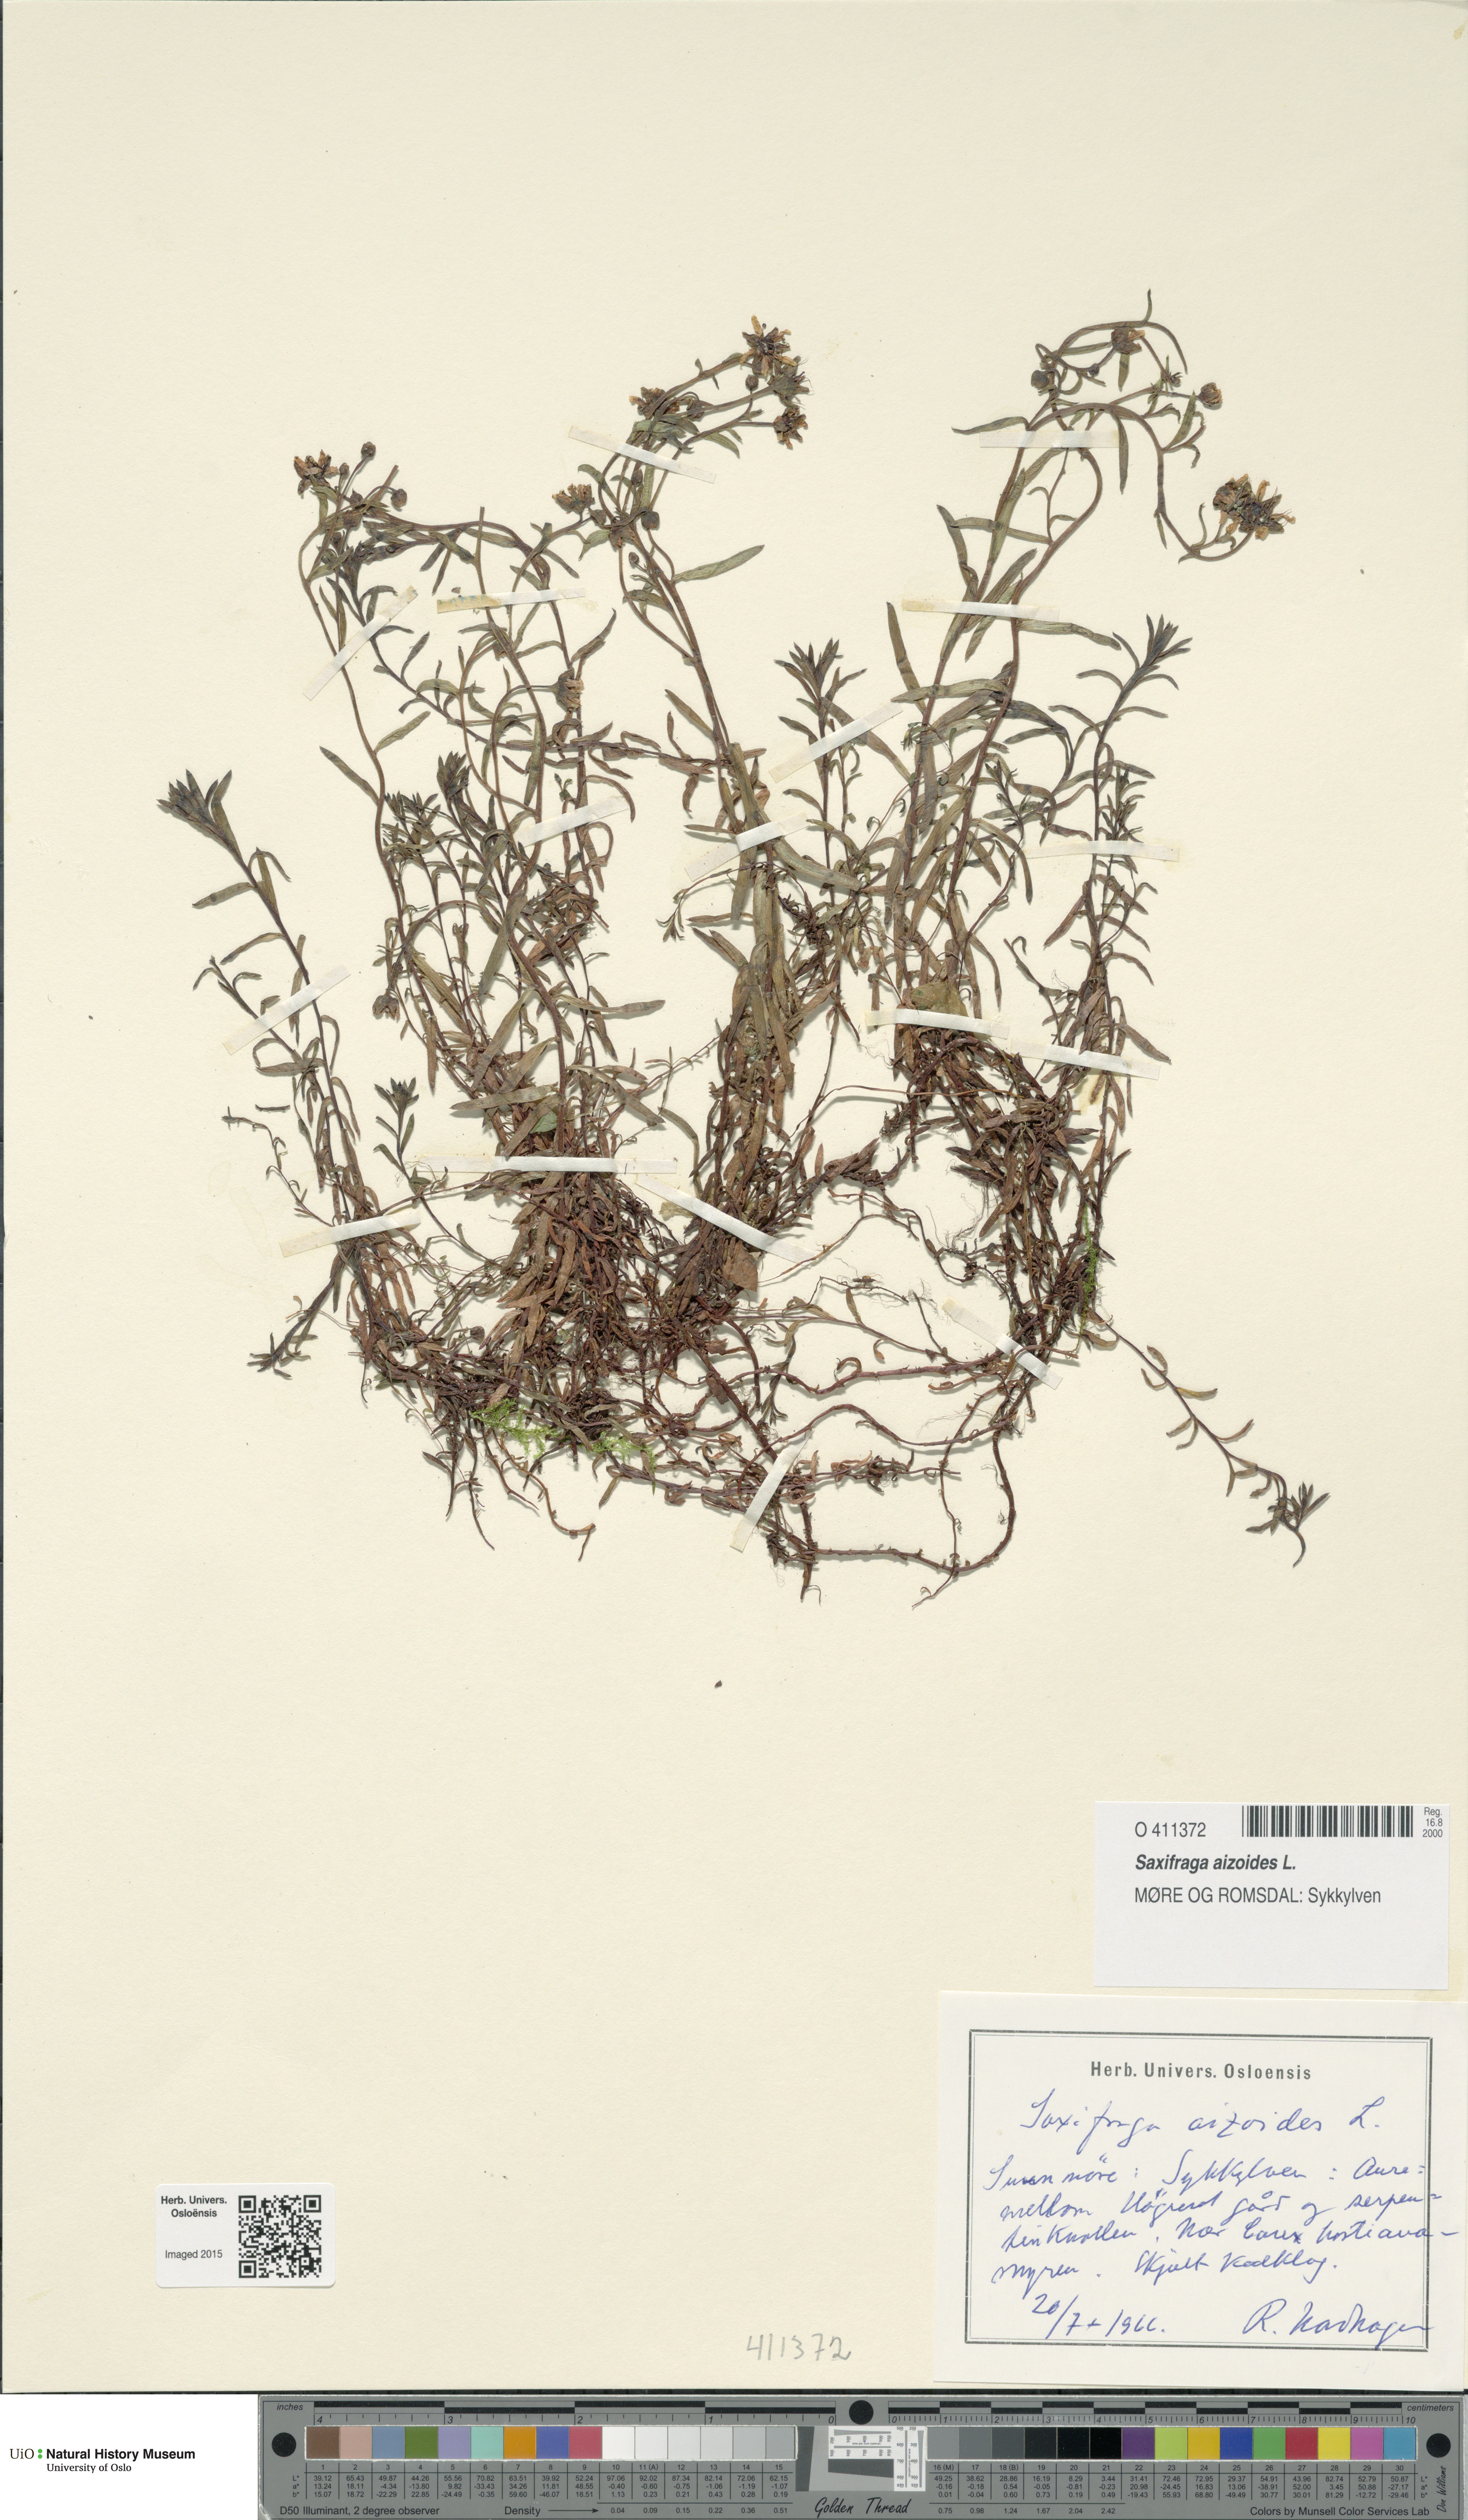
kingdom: Plantae
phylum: Tracheophyta
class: Magnoliopsida
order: Saxifragales
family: Saxifragaceae
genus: Saxifraga
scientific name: Saxifraga aizoides
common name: Yellow mountain saxifrage
